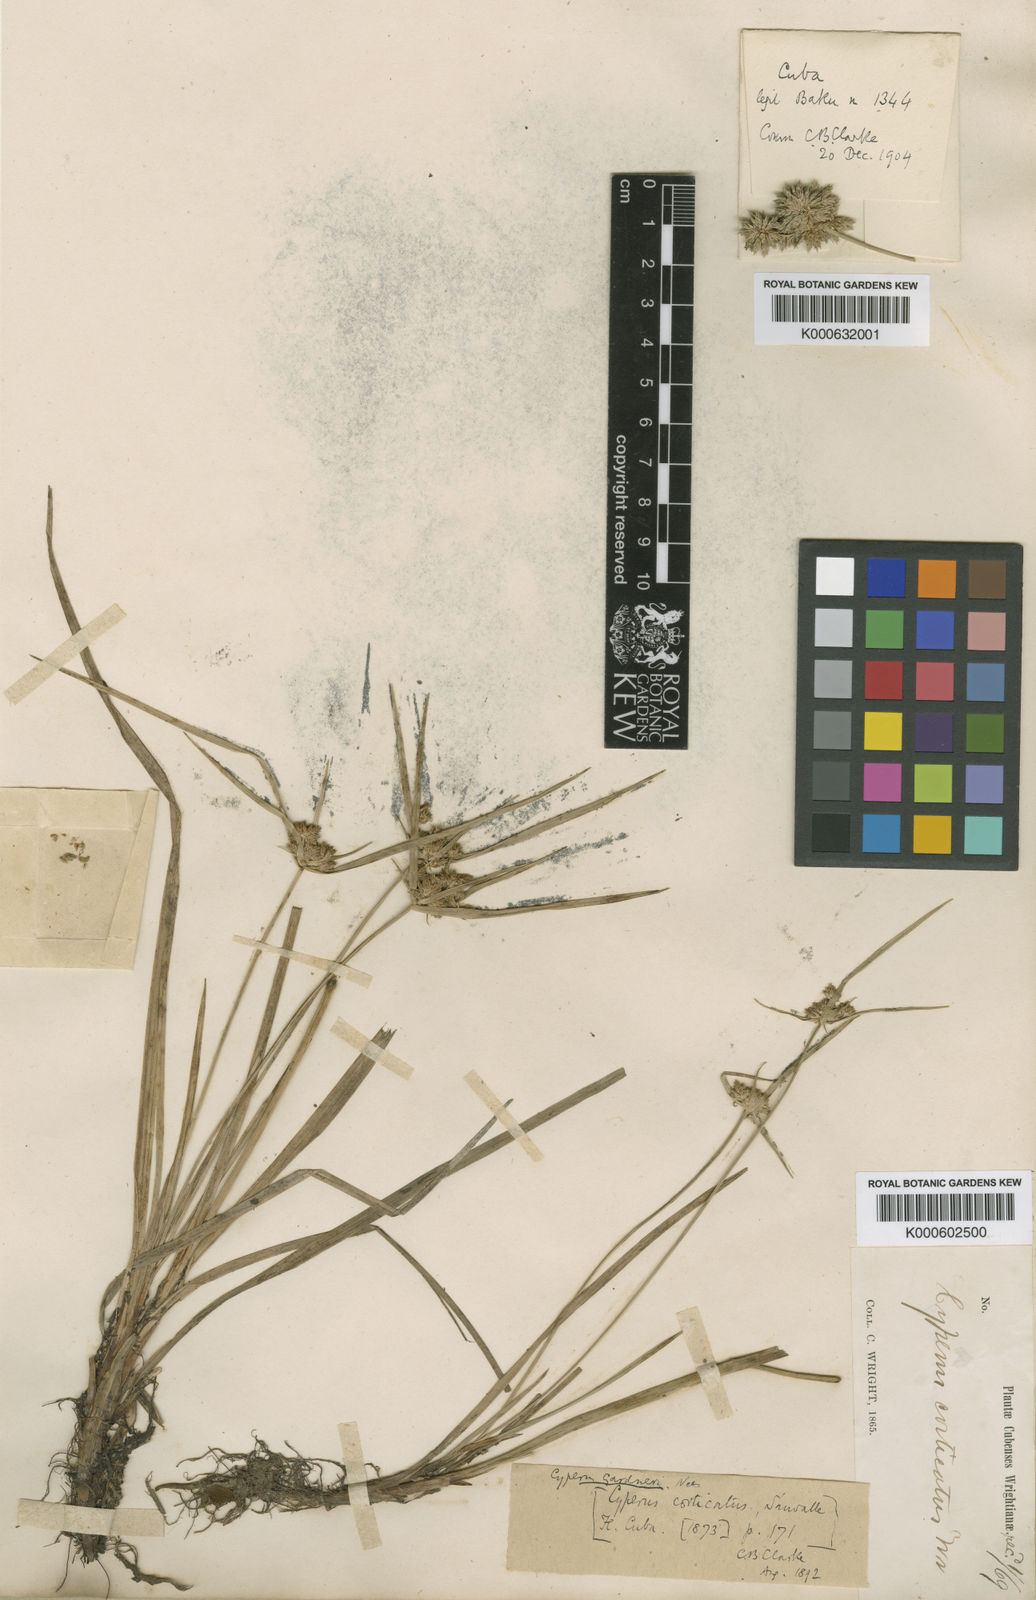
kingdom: Plantae
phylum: Tracheophyta
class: Liliopsida
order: Poales
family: Cyperaceae
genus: Cyperus
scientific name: Cyperus gardneri
